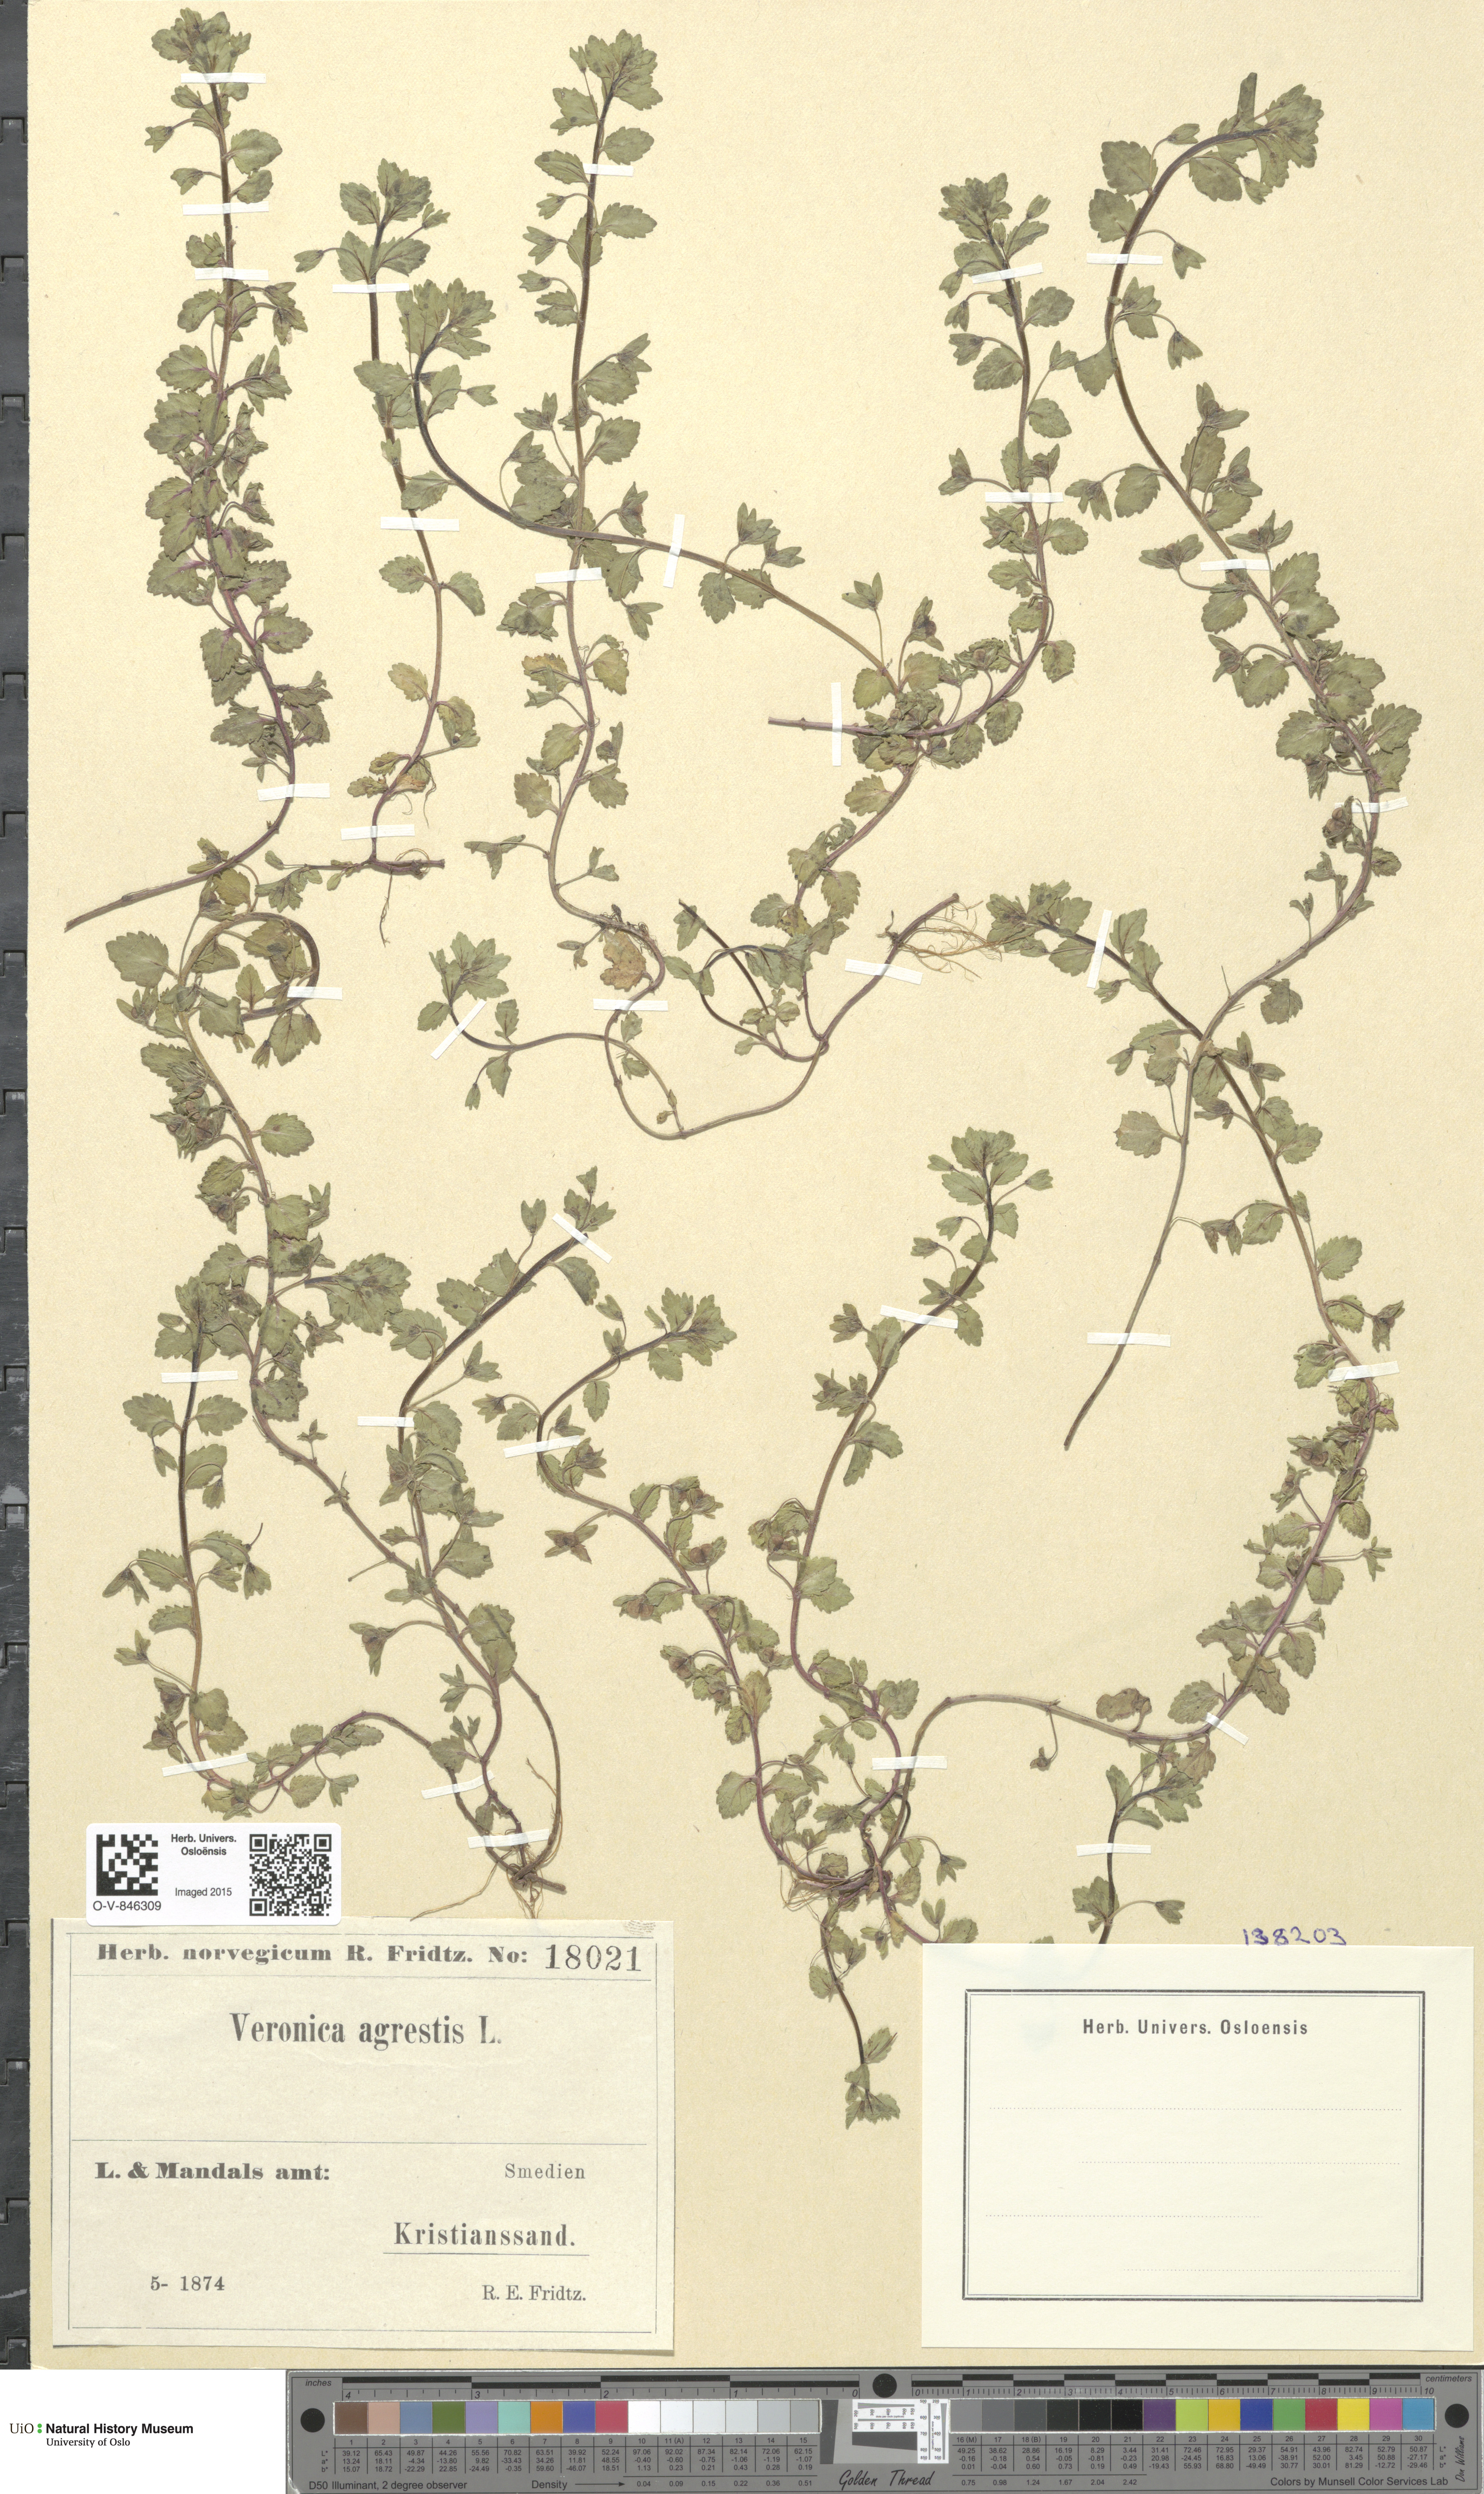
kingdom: Plantae
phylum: Tracheophyta
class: Magnoliopsida
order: Lamiales
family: Plantaginaceae
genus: Veronica
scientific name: Veronica agrestis
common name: Green field-speedwell
